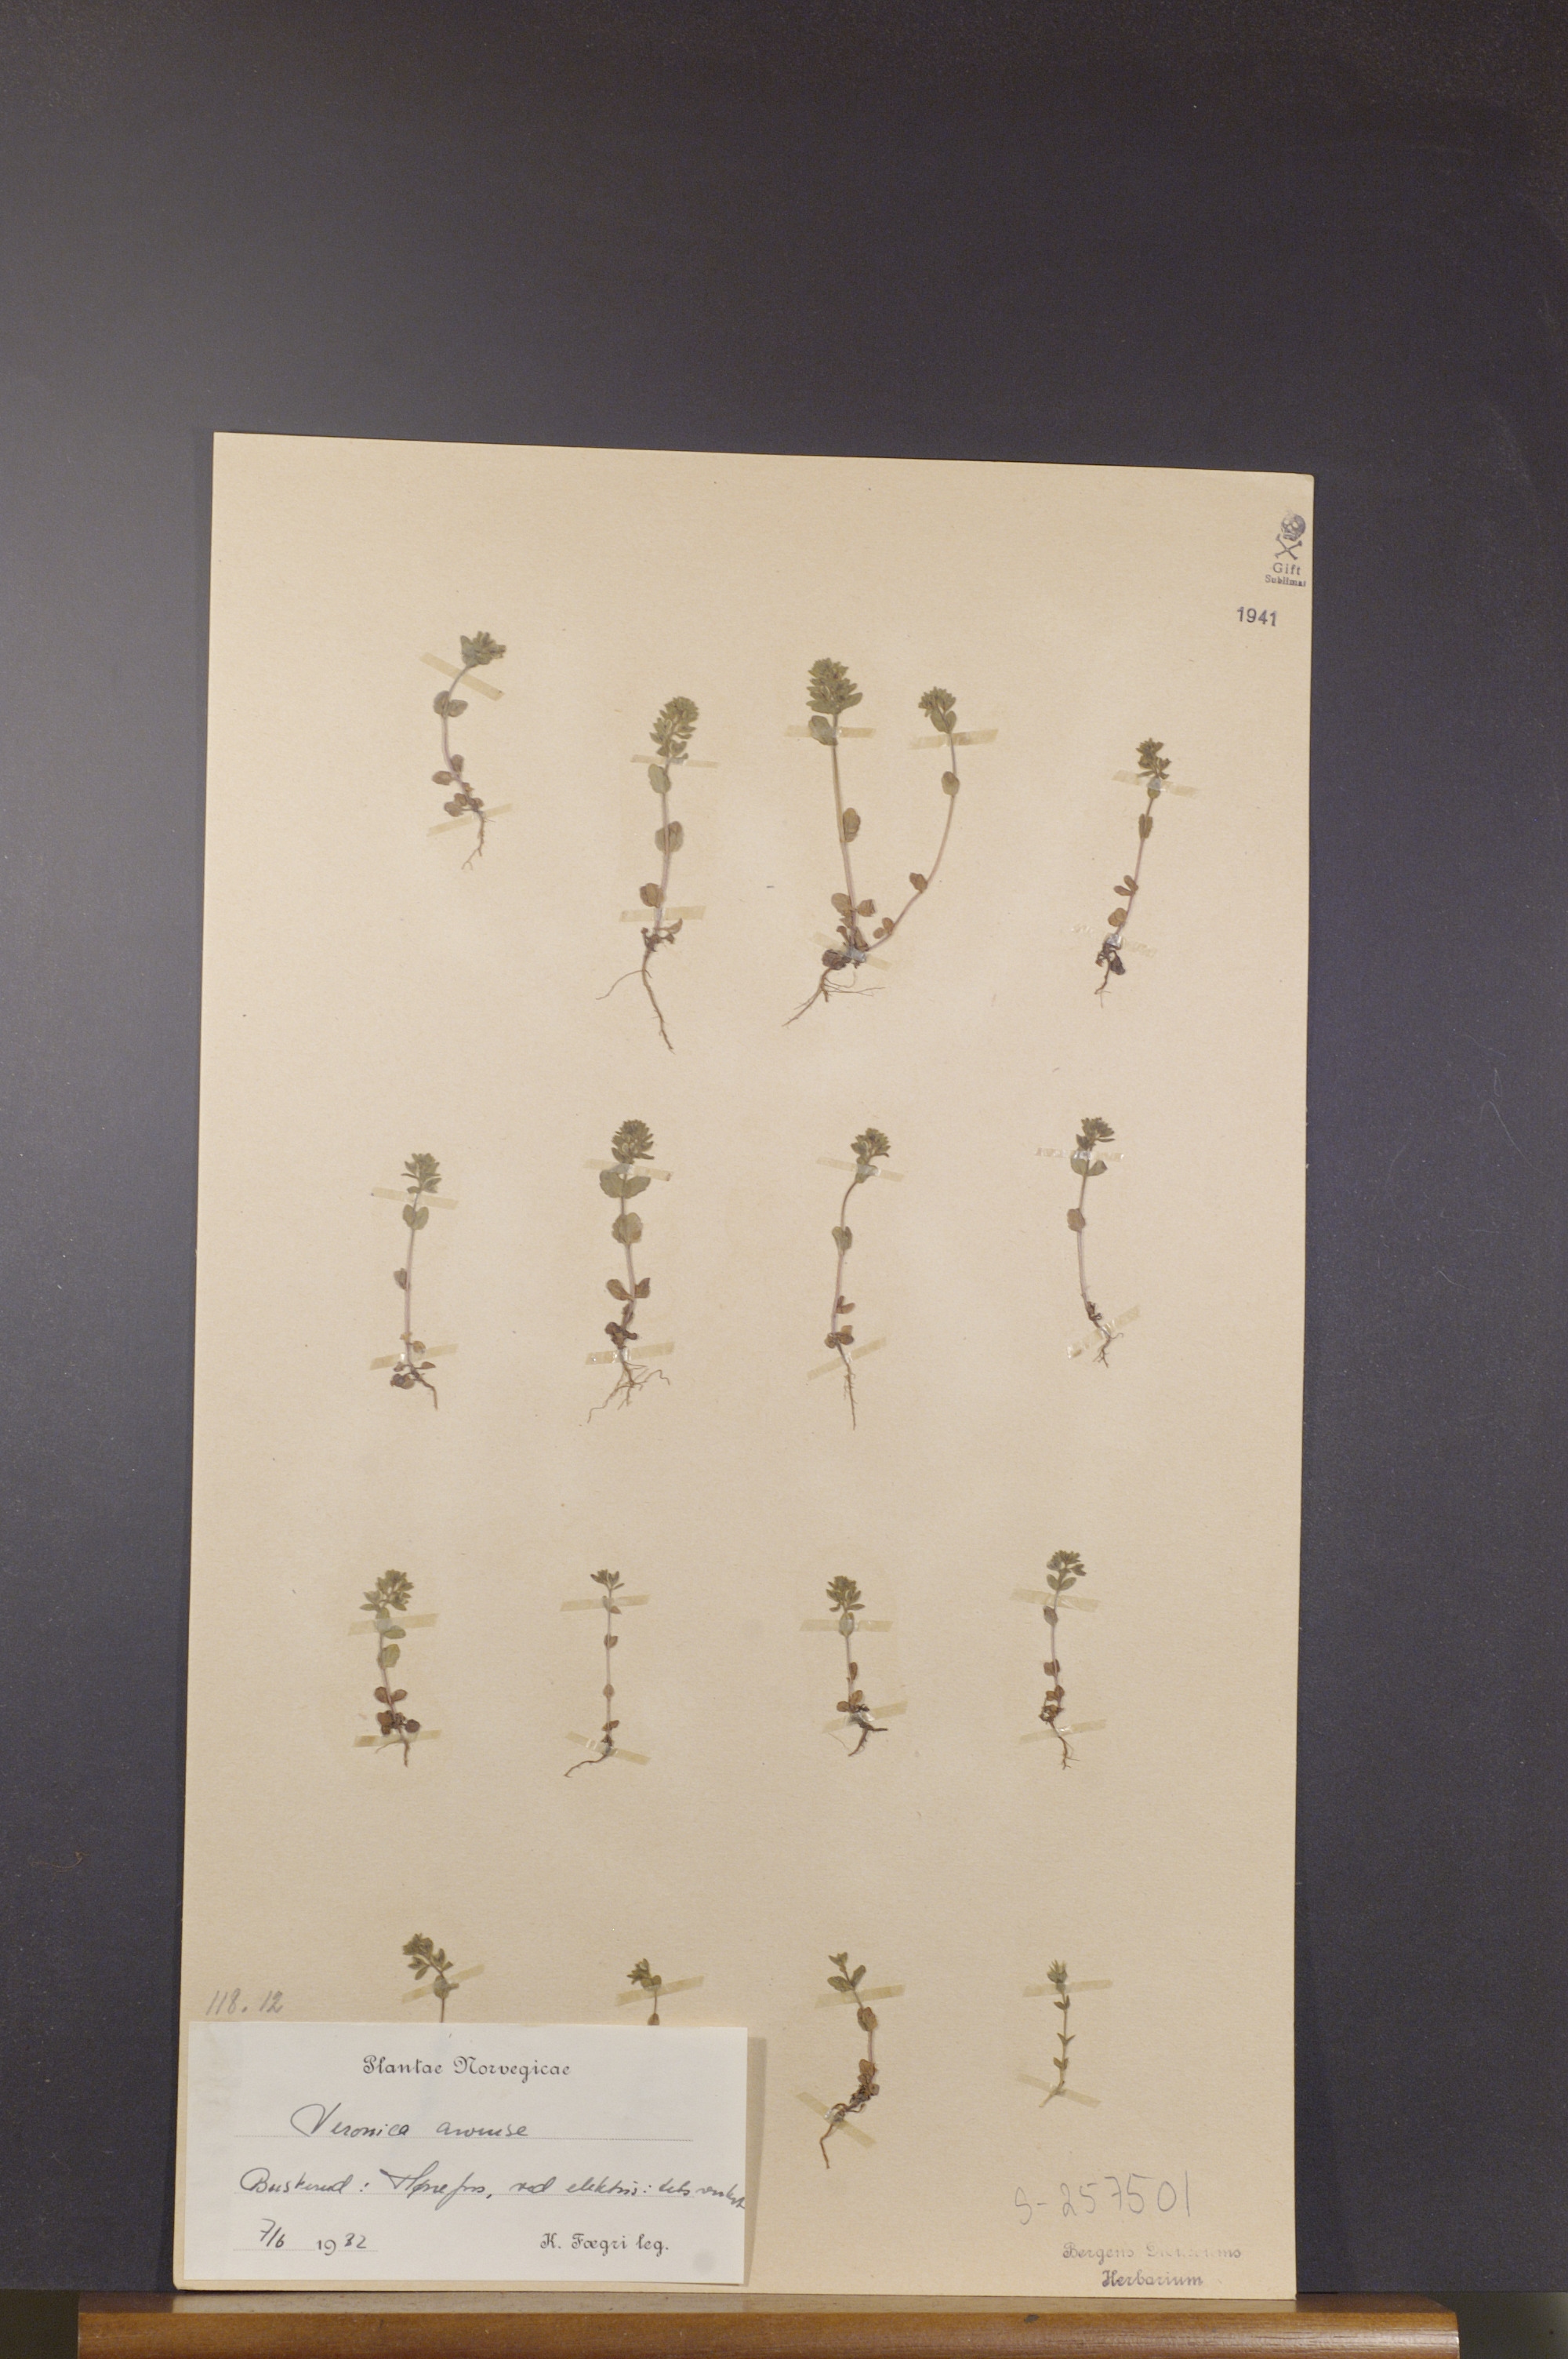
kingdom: Plantae
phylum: Tracheophyta
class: Magnoliopsida
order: Lamiales
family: Plantaginaceae
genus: Veronica
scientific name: Veronica arvensis
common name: Corn speedwell
